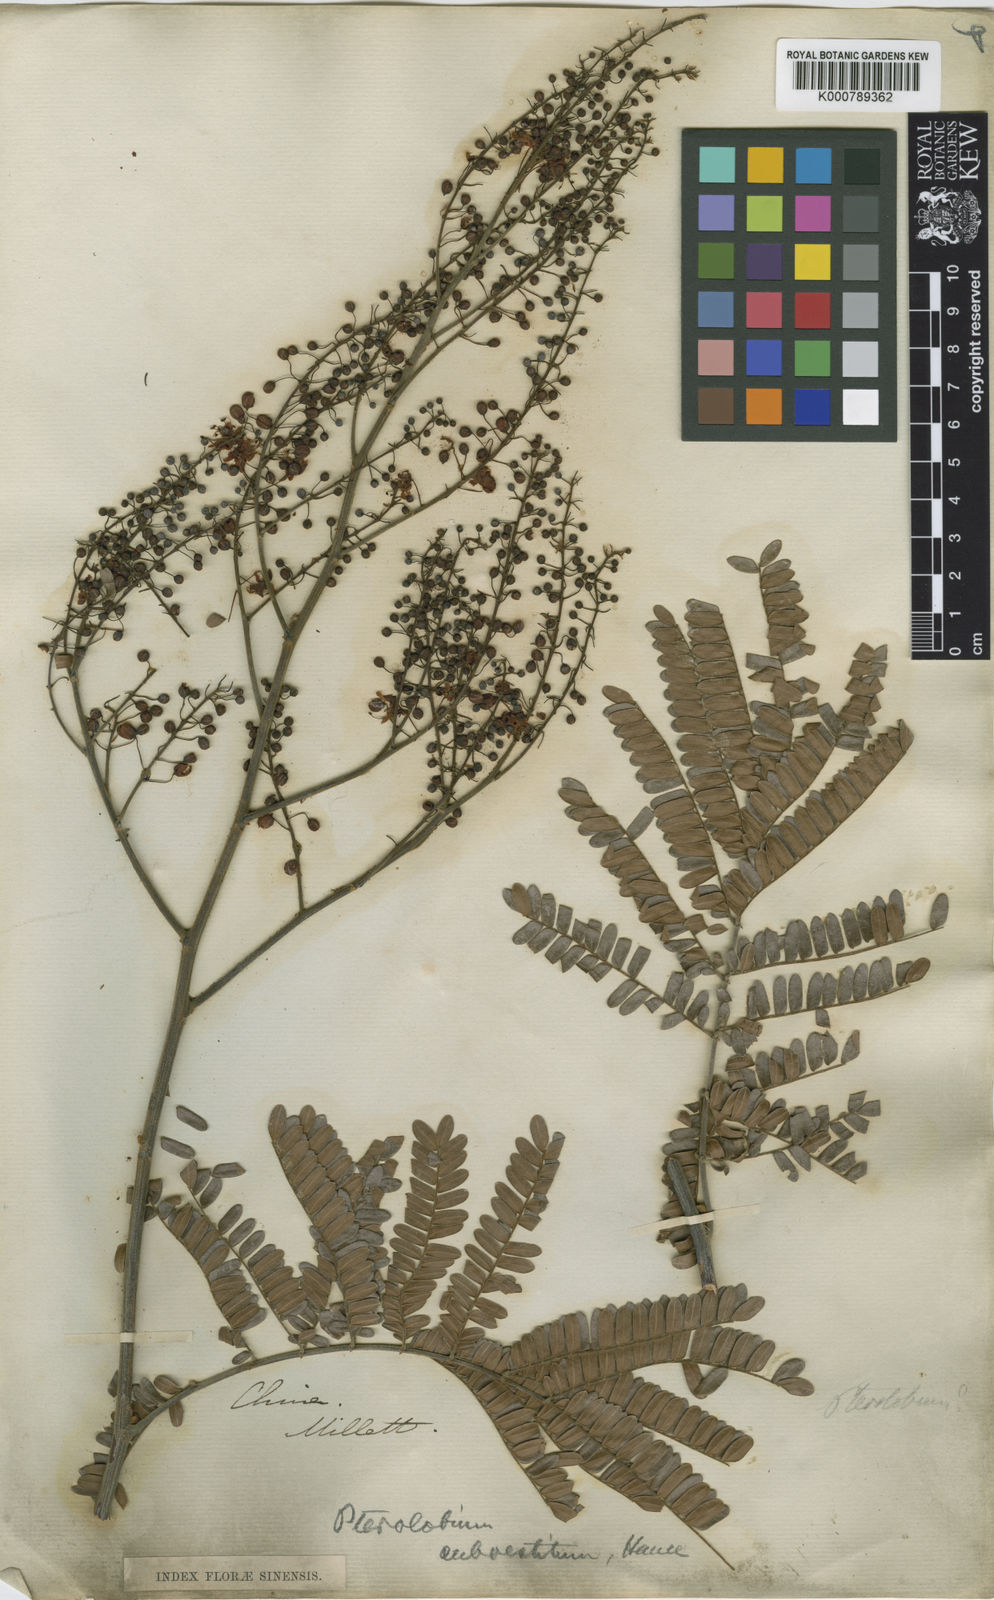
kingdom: Plantae
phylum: Tracheophyta
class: Magnoliopsida
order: Fabales
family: Fabaceae
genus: Biancaea
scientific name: Biancaea millettii
